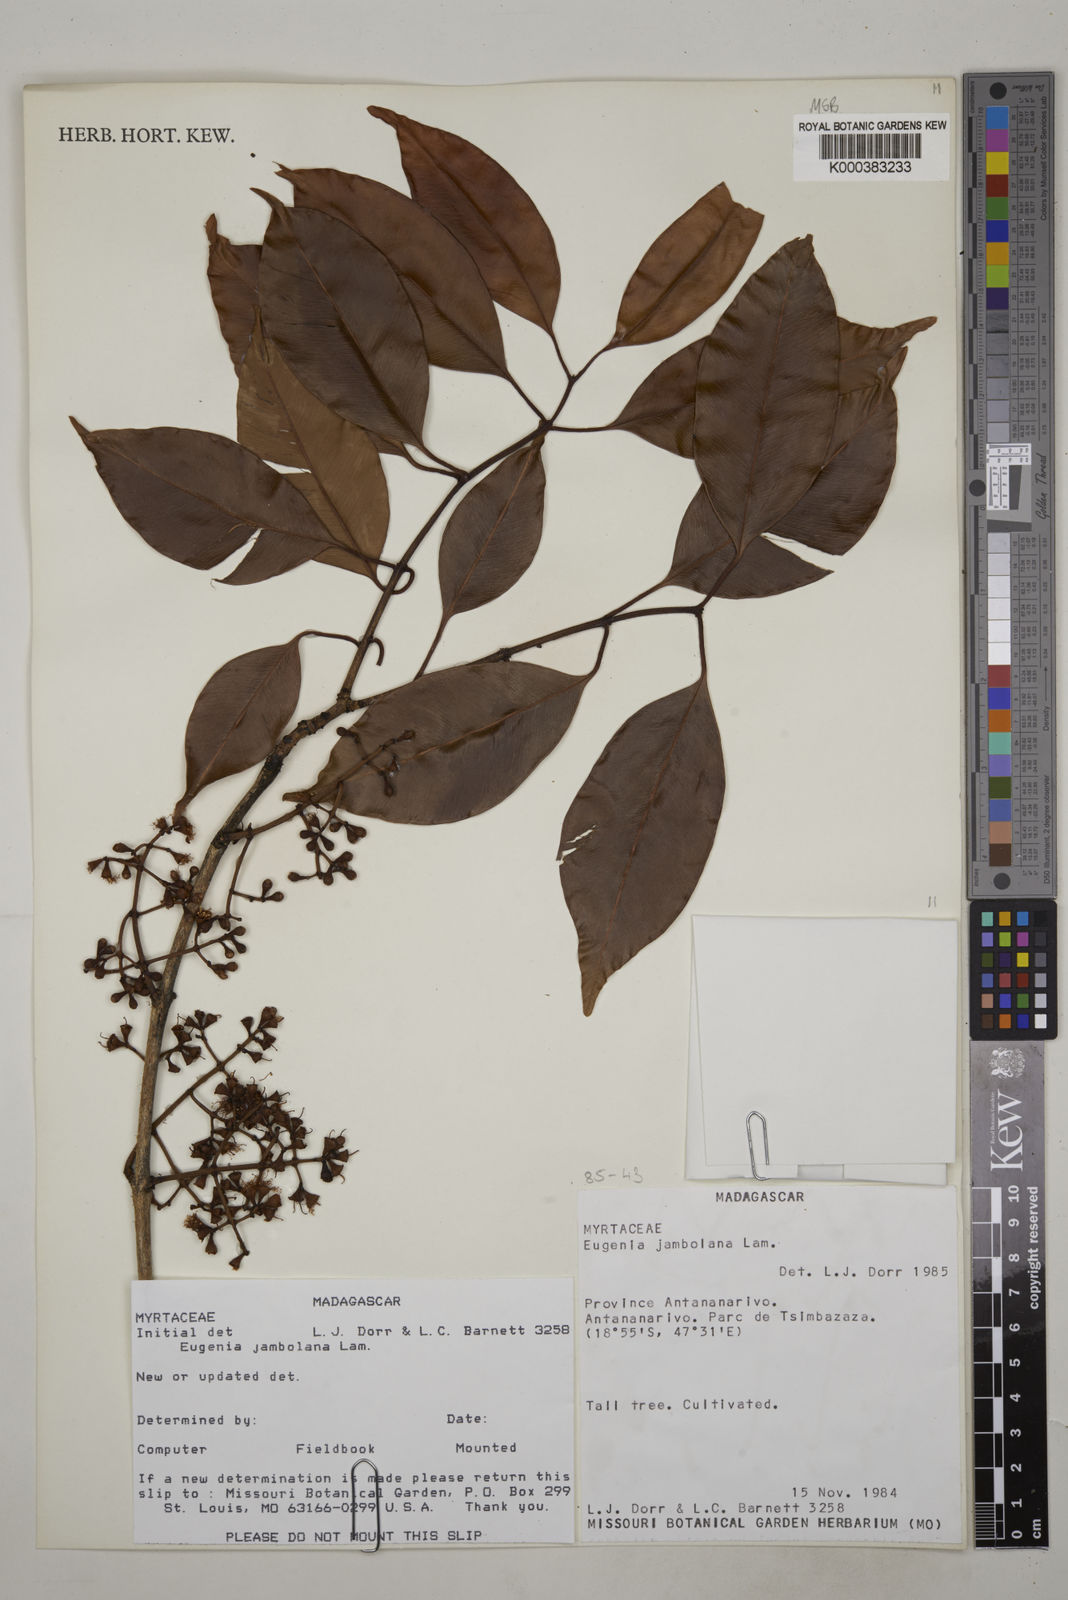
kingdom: Plantae
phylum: Tracheophyta
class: Magnoliopsida
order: Myrtales
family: Myrtaceae
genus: Syzygium
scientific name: Syzygium cumini
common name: Java plum
